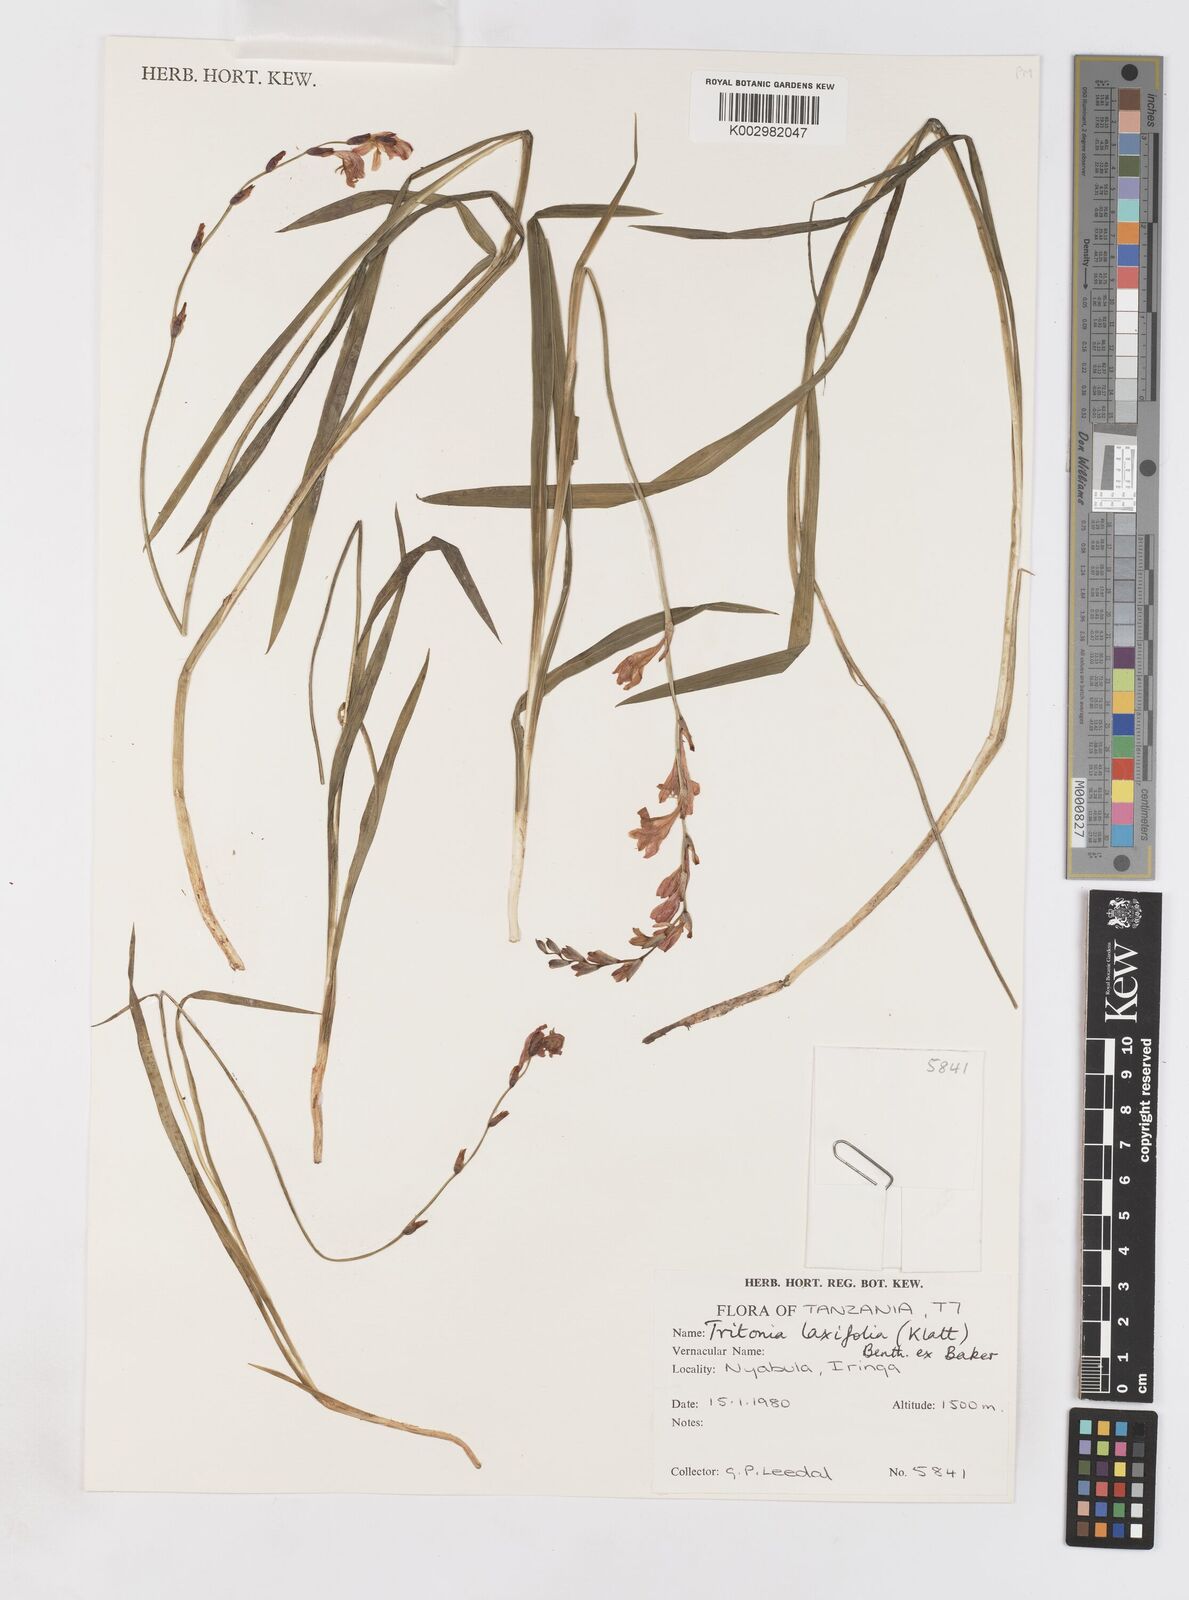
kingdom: Plantae
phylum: Tracheophyta
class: Liliopsida
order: Asparagales
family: Iridaceae
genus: Tritonia
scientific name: Tritonia laxifolia
